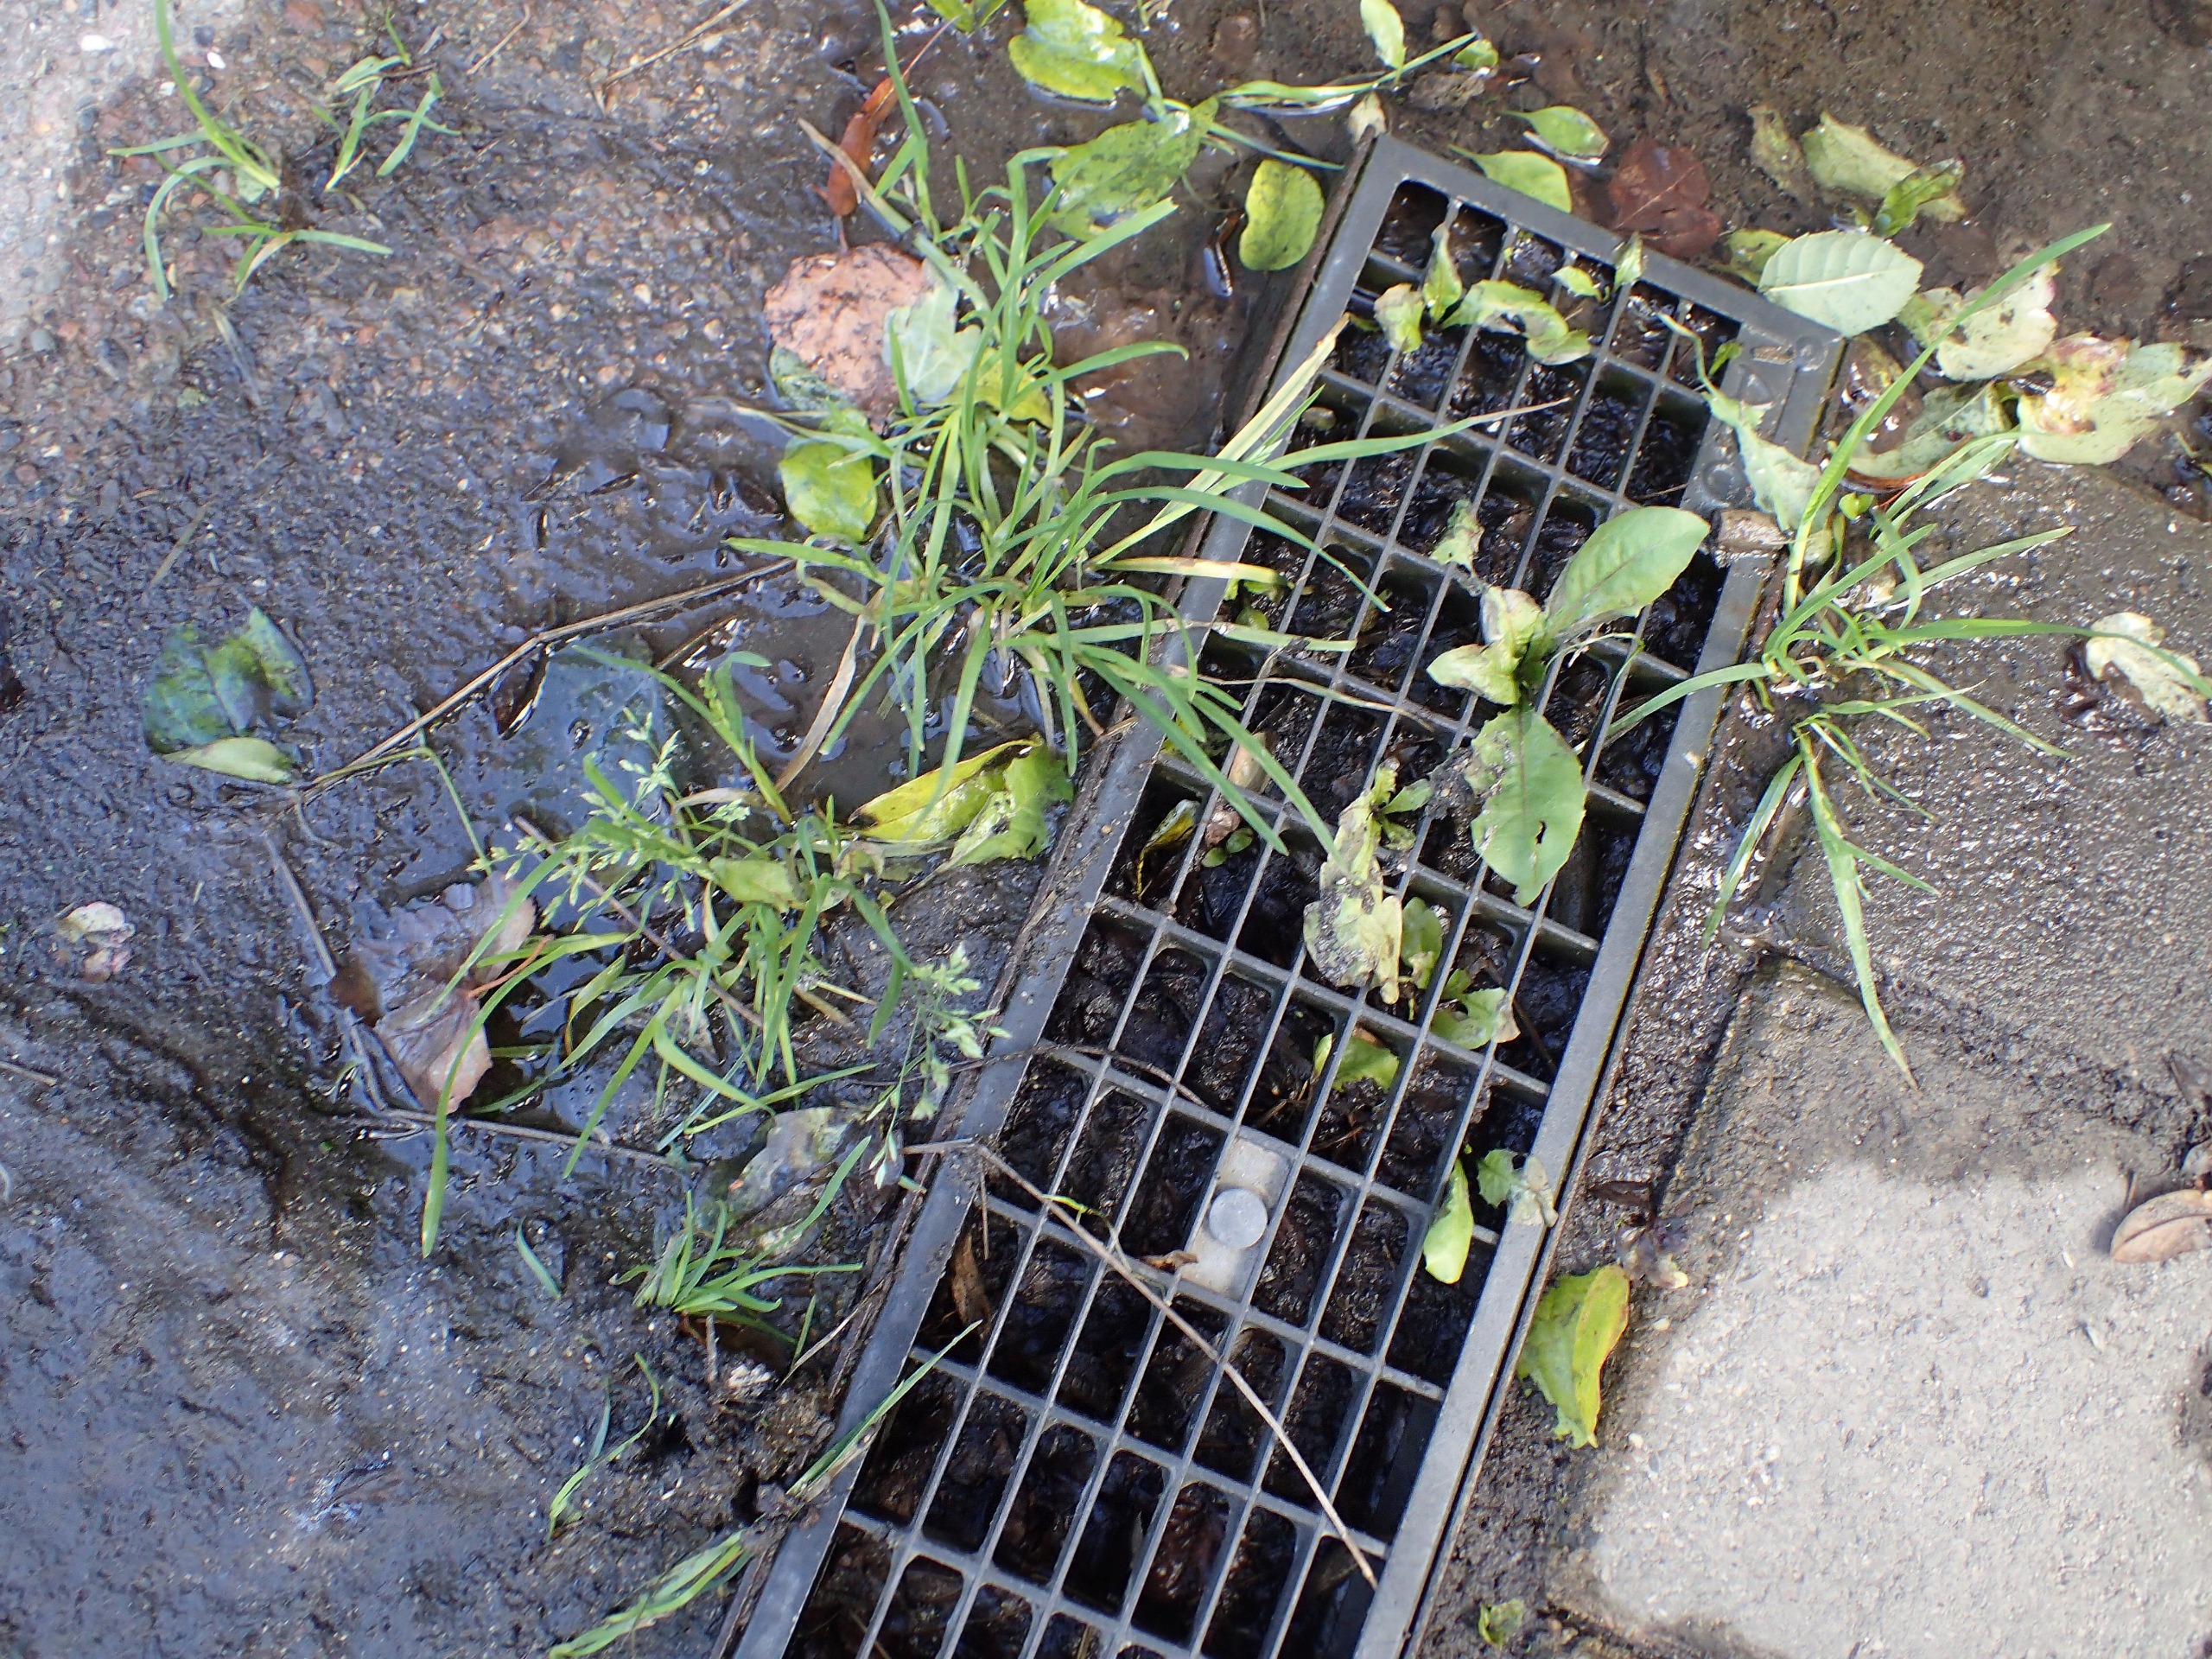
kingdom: Plantae
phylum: Tracheophyta
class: Liliopsida
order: Poales
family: Poaceae
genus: Poa
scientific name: Poa annua
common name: Enårig rapgræs
